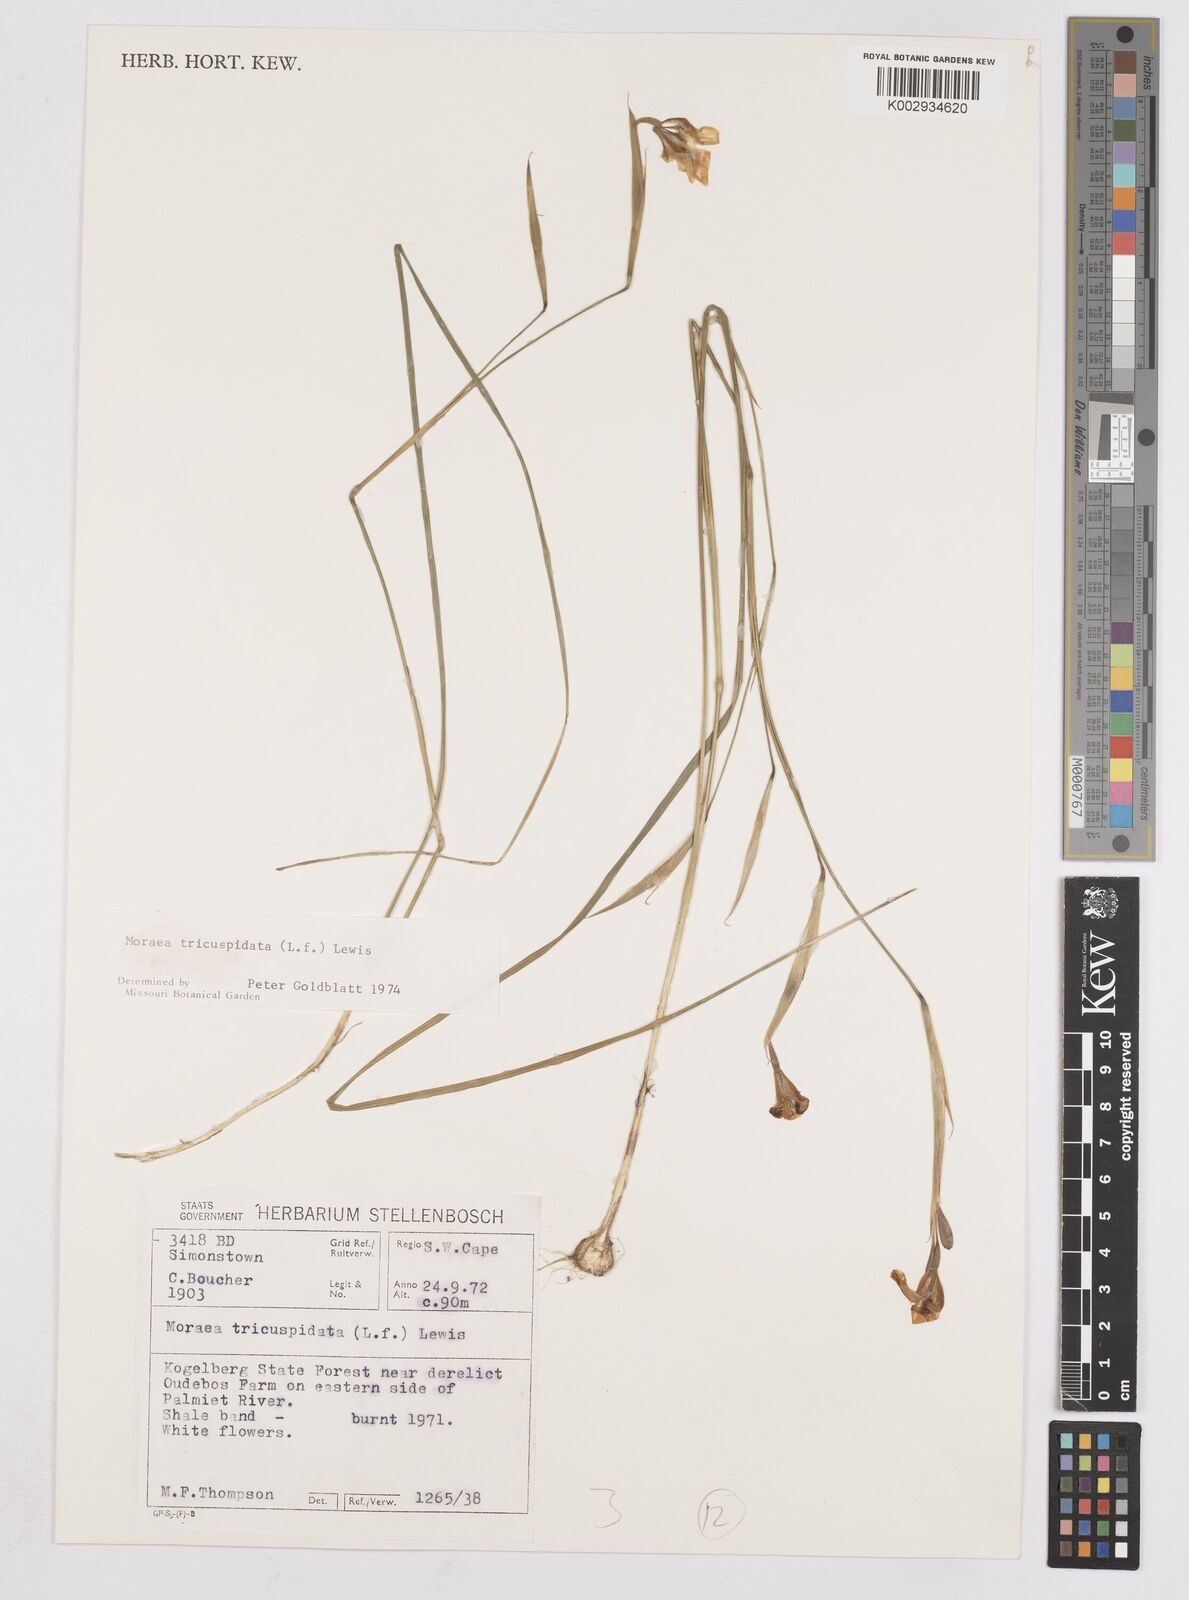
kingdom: Plantae
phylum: Tracheophyta
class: Liliopsida
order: Asparagales
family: Iridaceae
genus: Moraea
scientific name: Moraea tricuspidata
